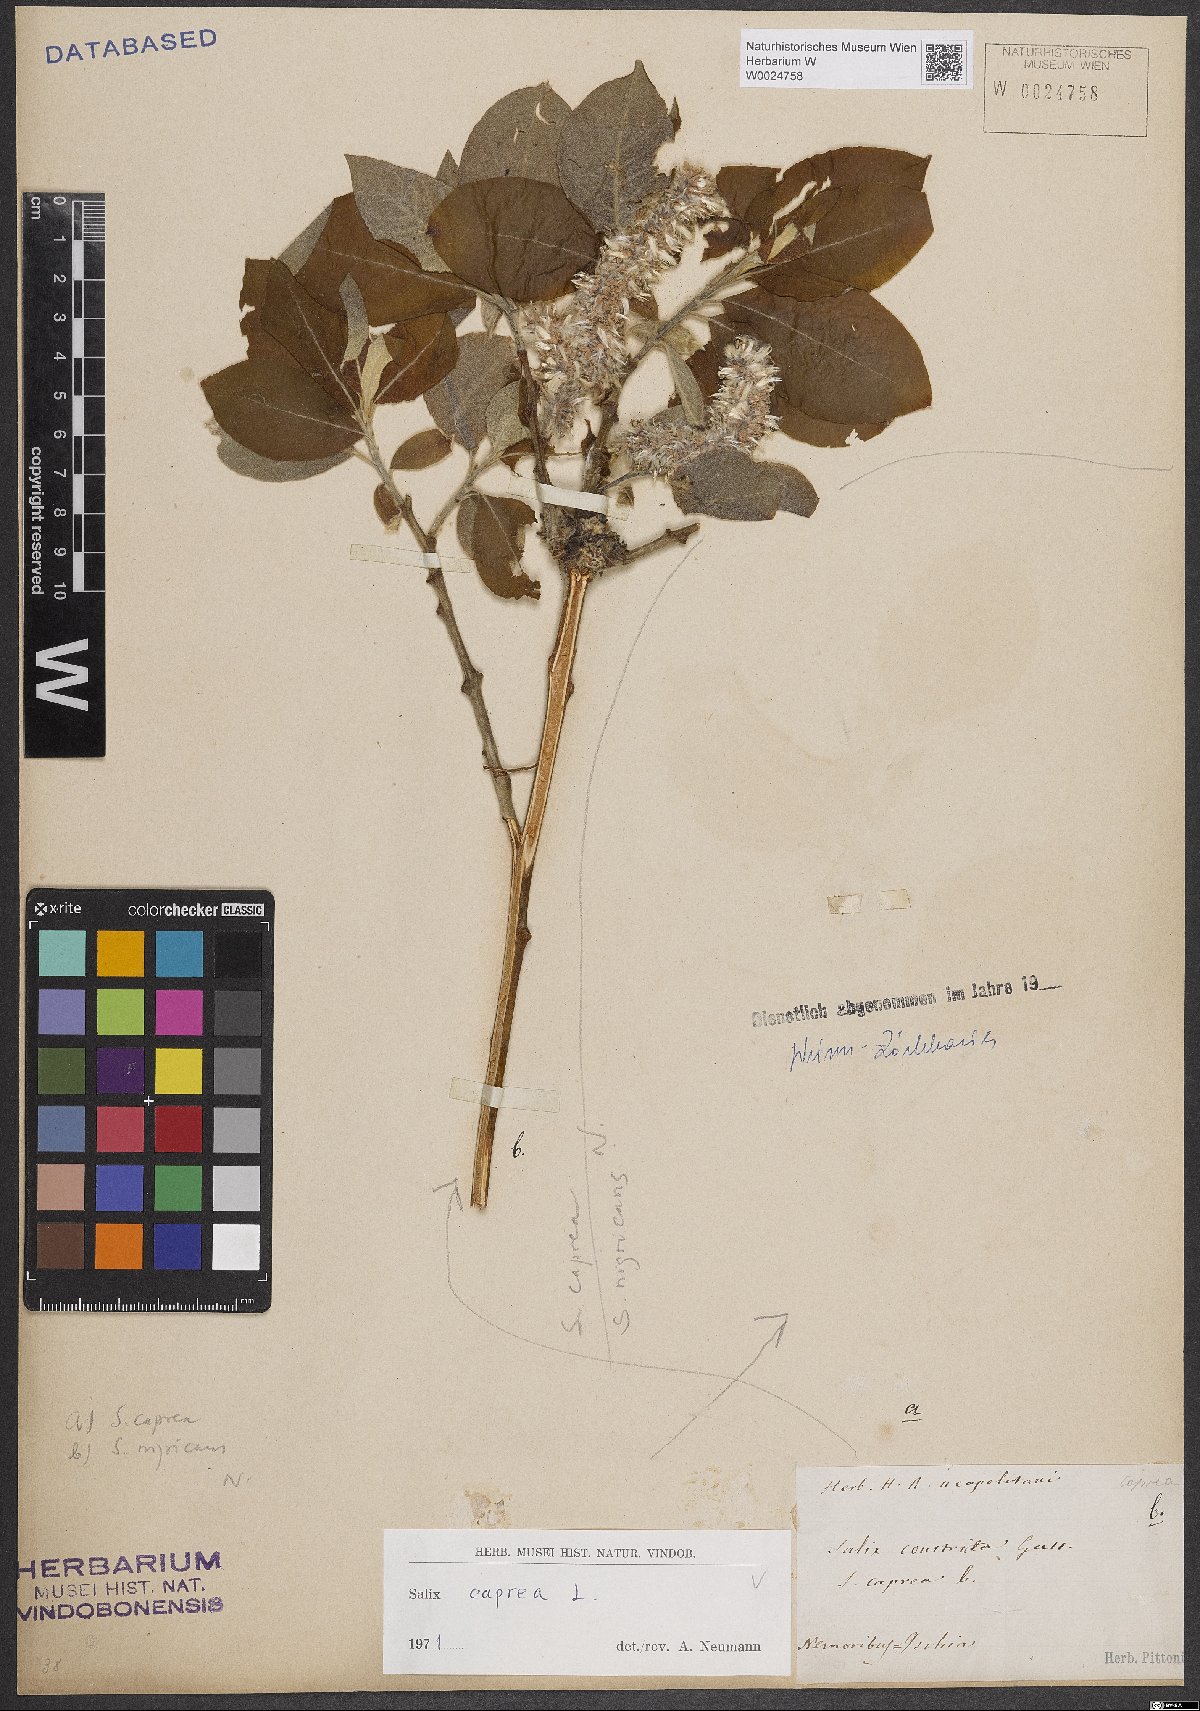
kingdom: Plantae
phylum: Tracheophyta
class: Magnoliopsida
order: Malpighiales
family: Salicaceae
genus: Salix
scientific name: Salix caprea
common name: Goat willow
